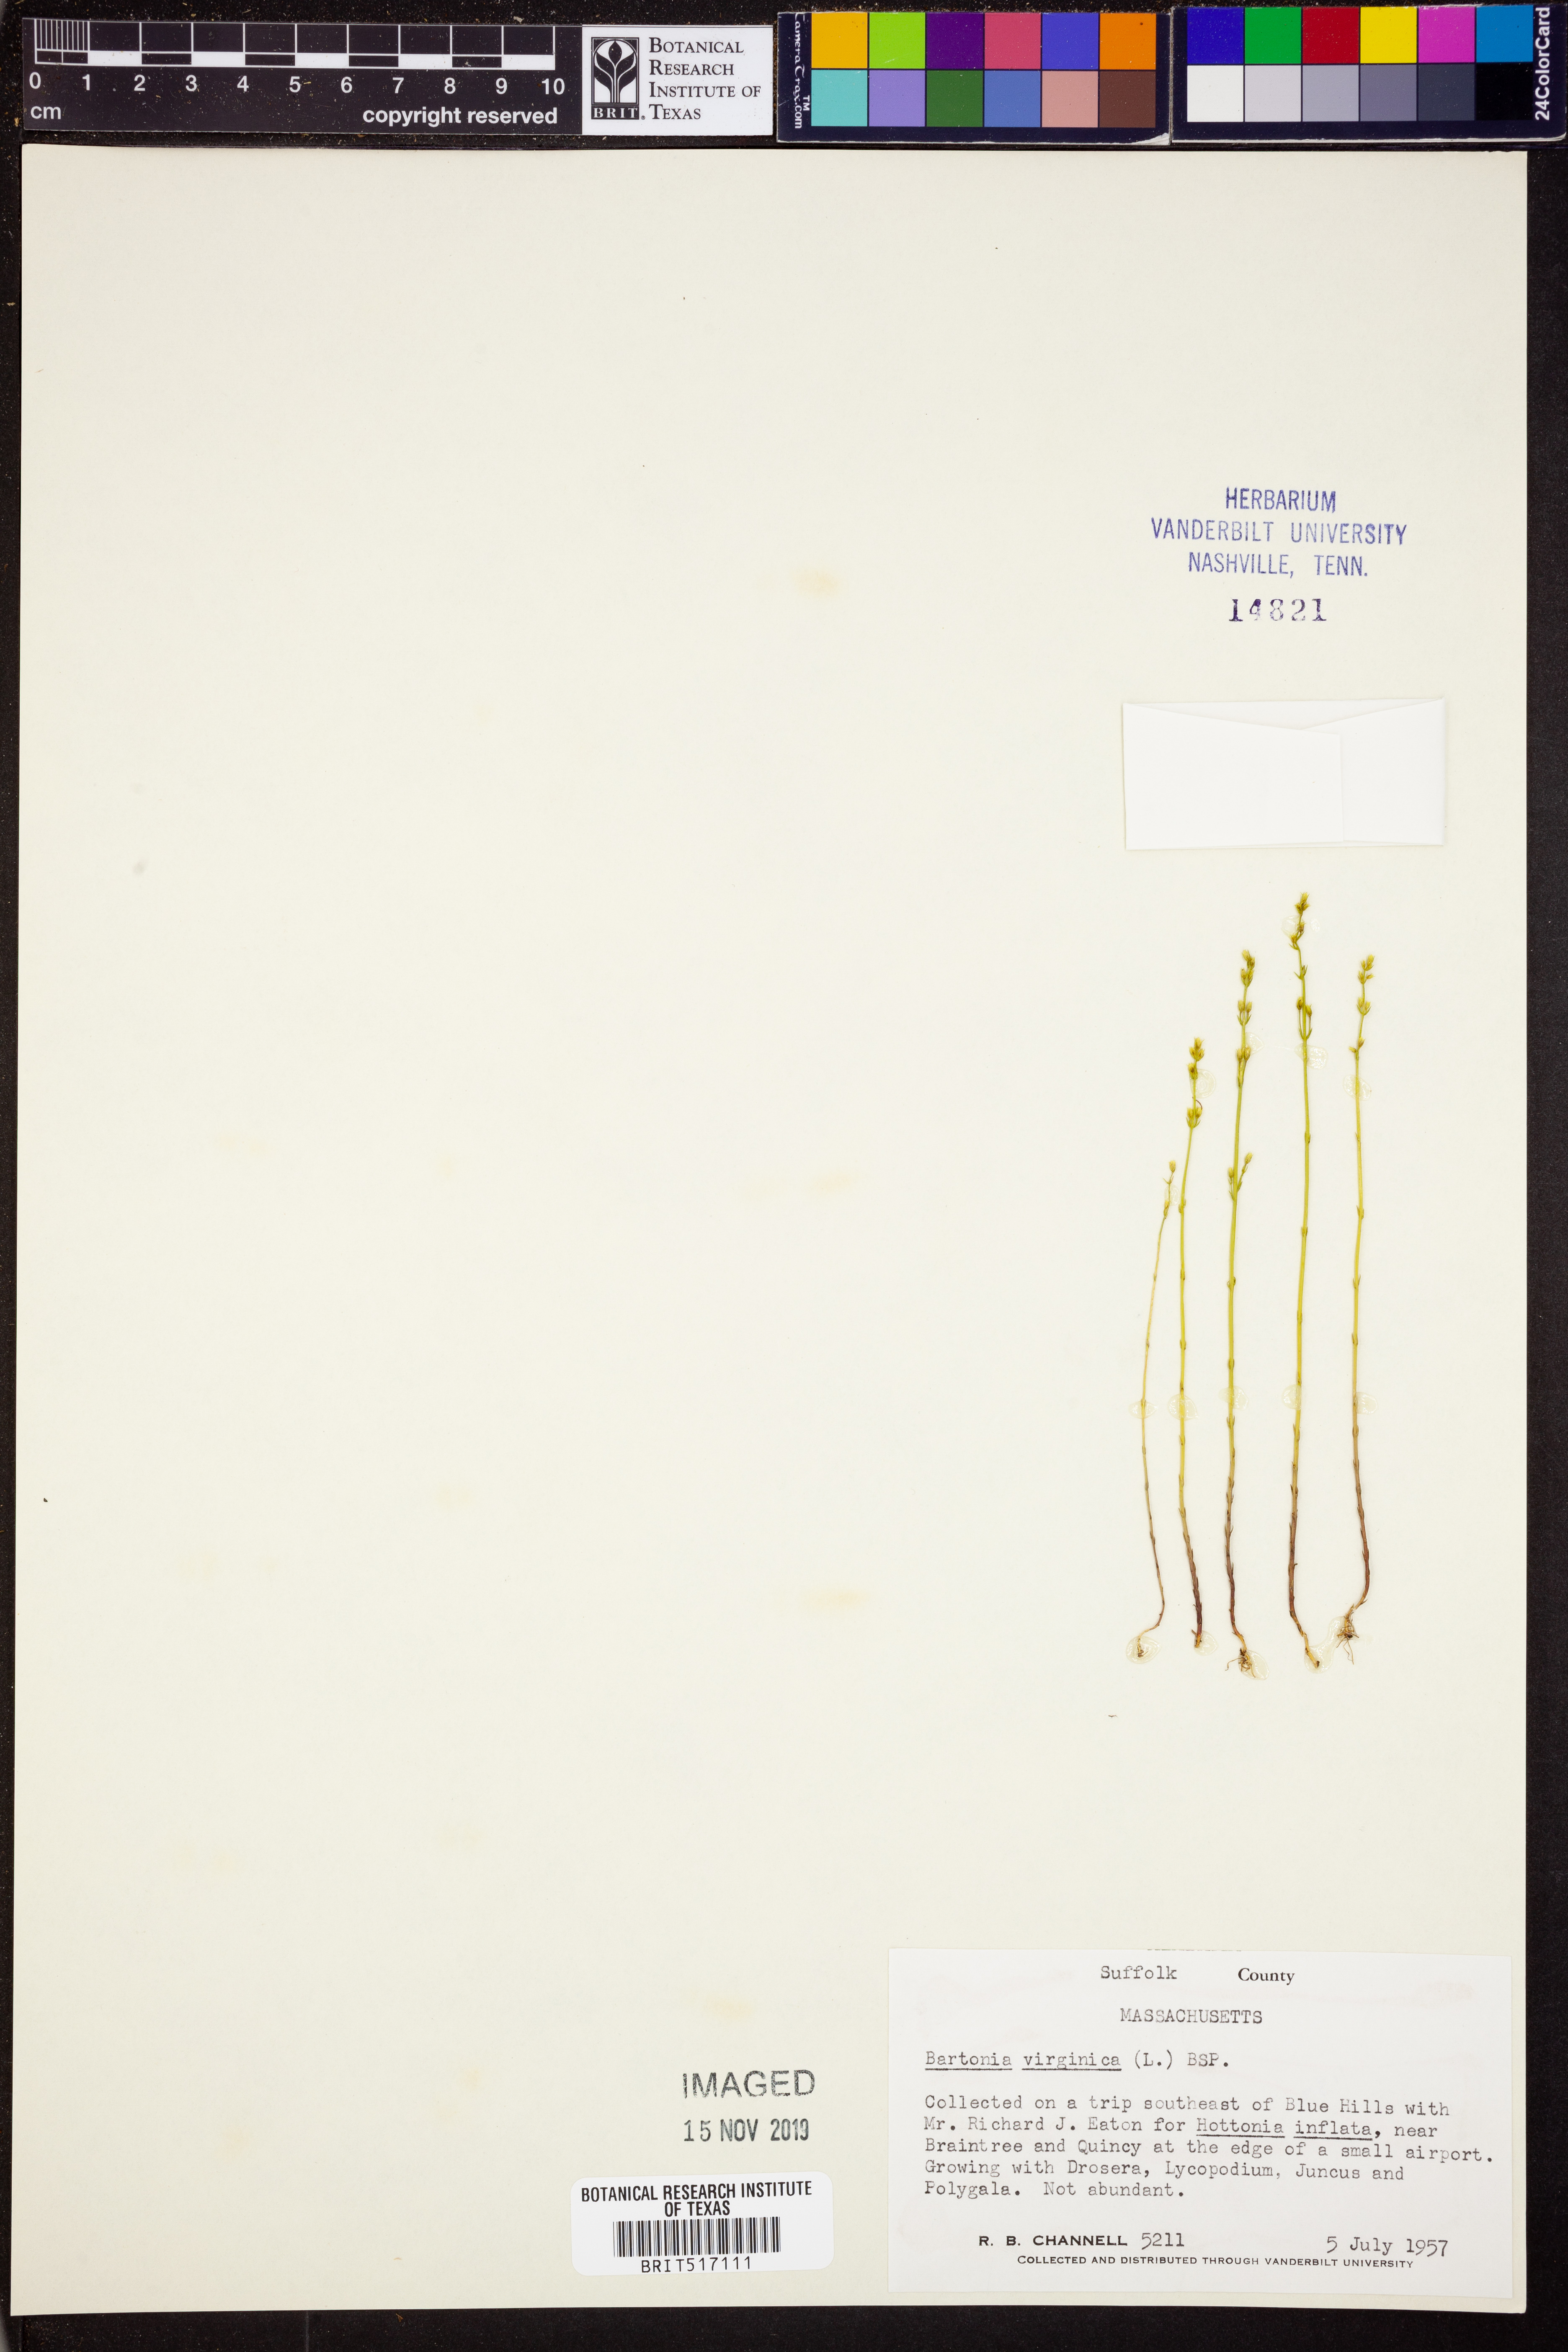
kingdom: Plantae
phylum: Tracheophyta
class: Magnoliopsida
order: Gentianales
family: Gentianaceae
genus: Bartonia
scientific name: Bartonia virginica
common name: Yellow bartonia
